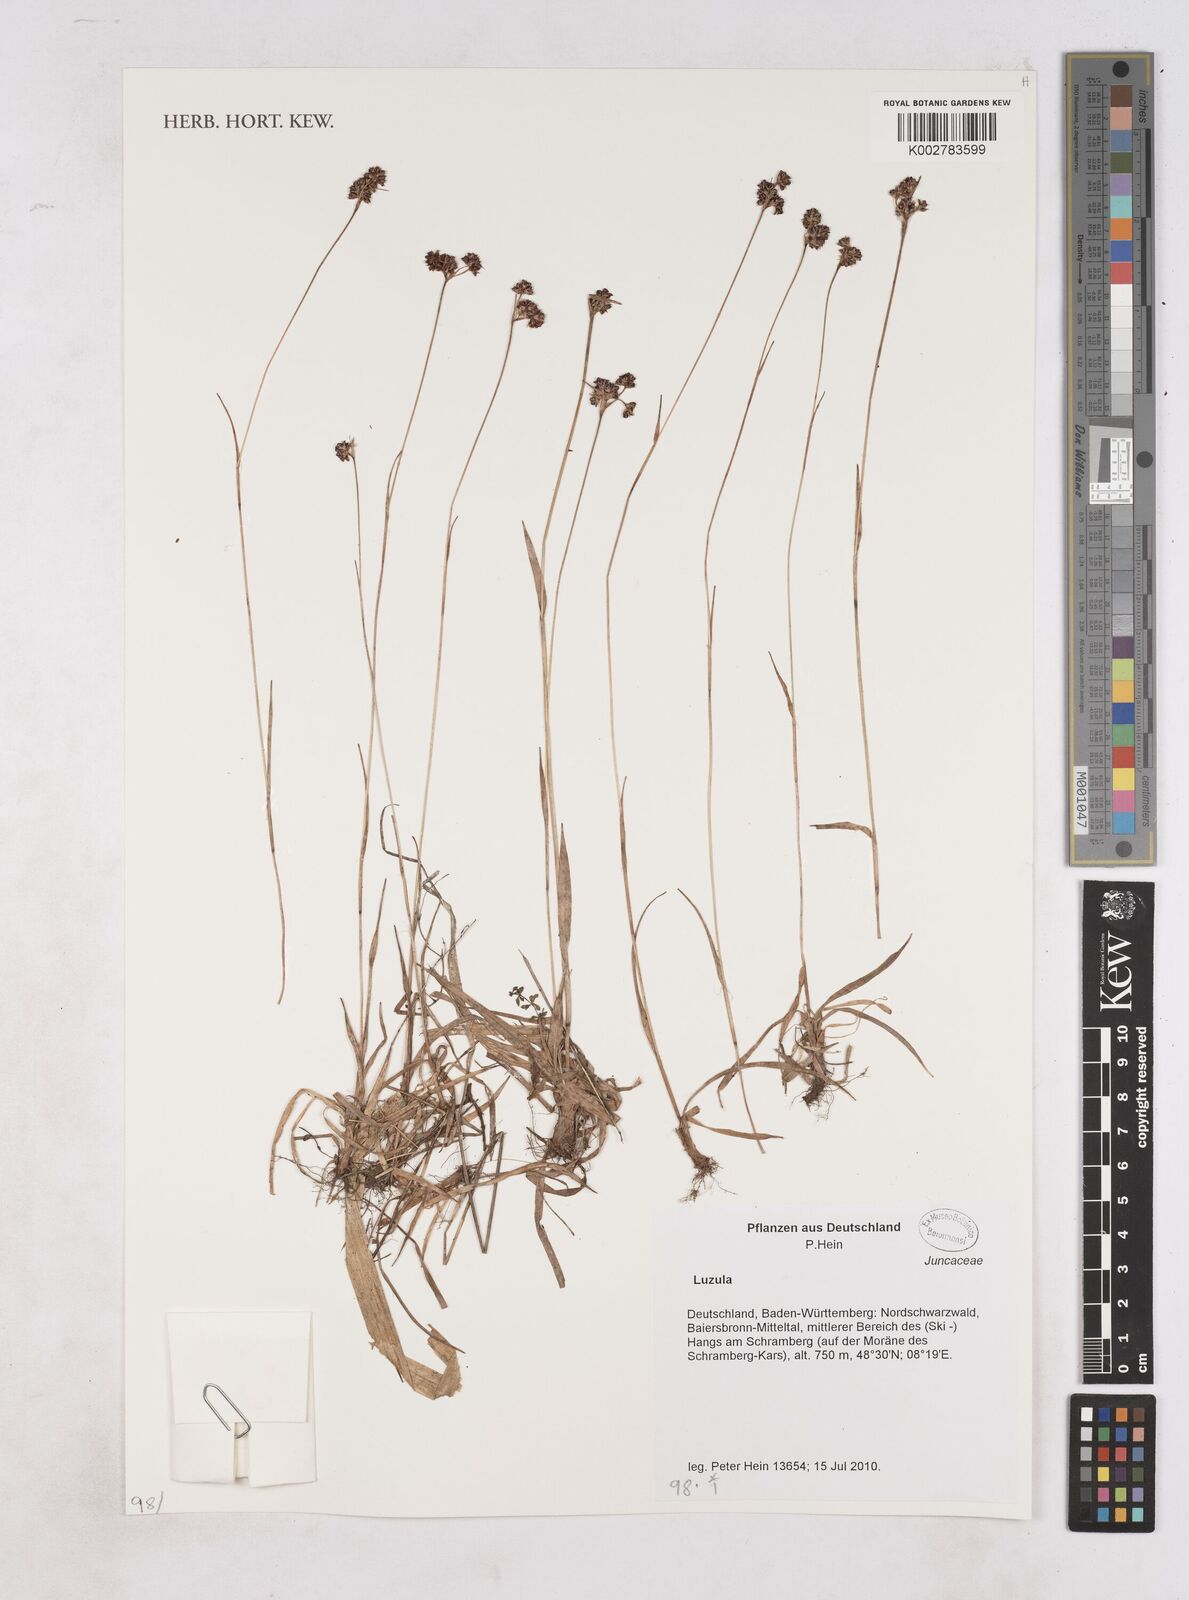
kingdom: Plantae
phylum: Tracheophyta
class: Liliopsida
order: Poales
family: Juncaceae
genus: Luzula
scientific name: Luzula
